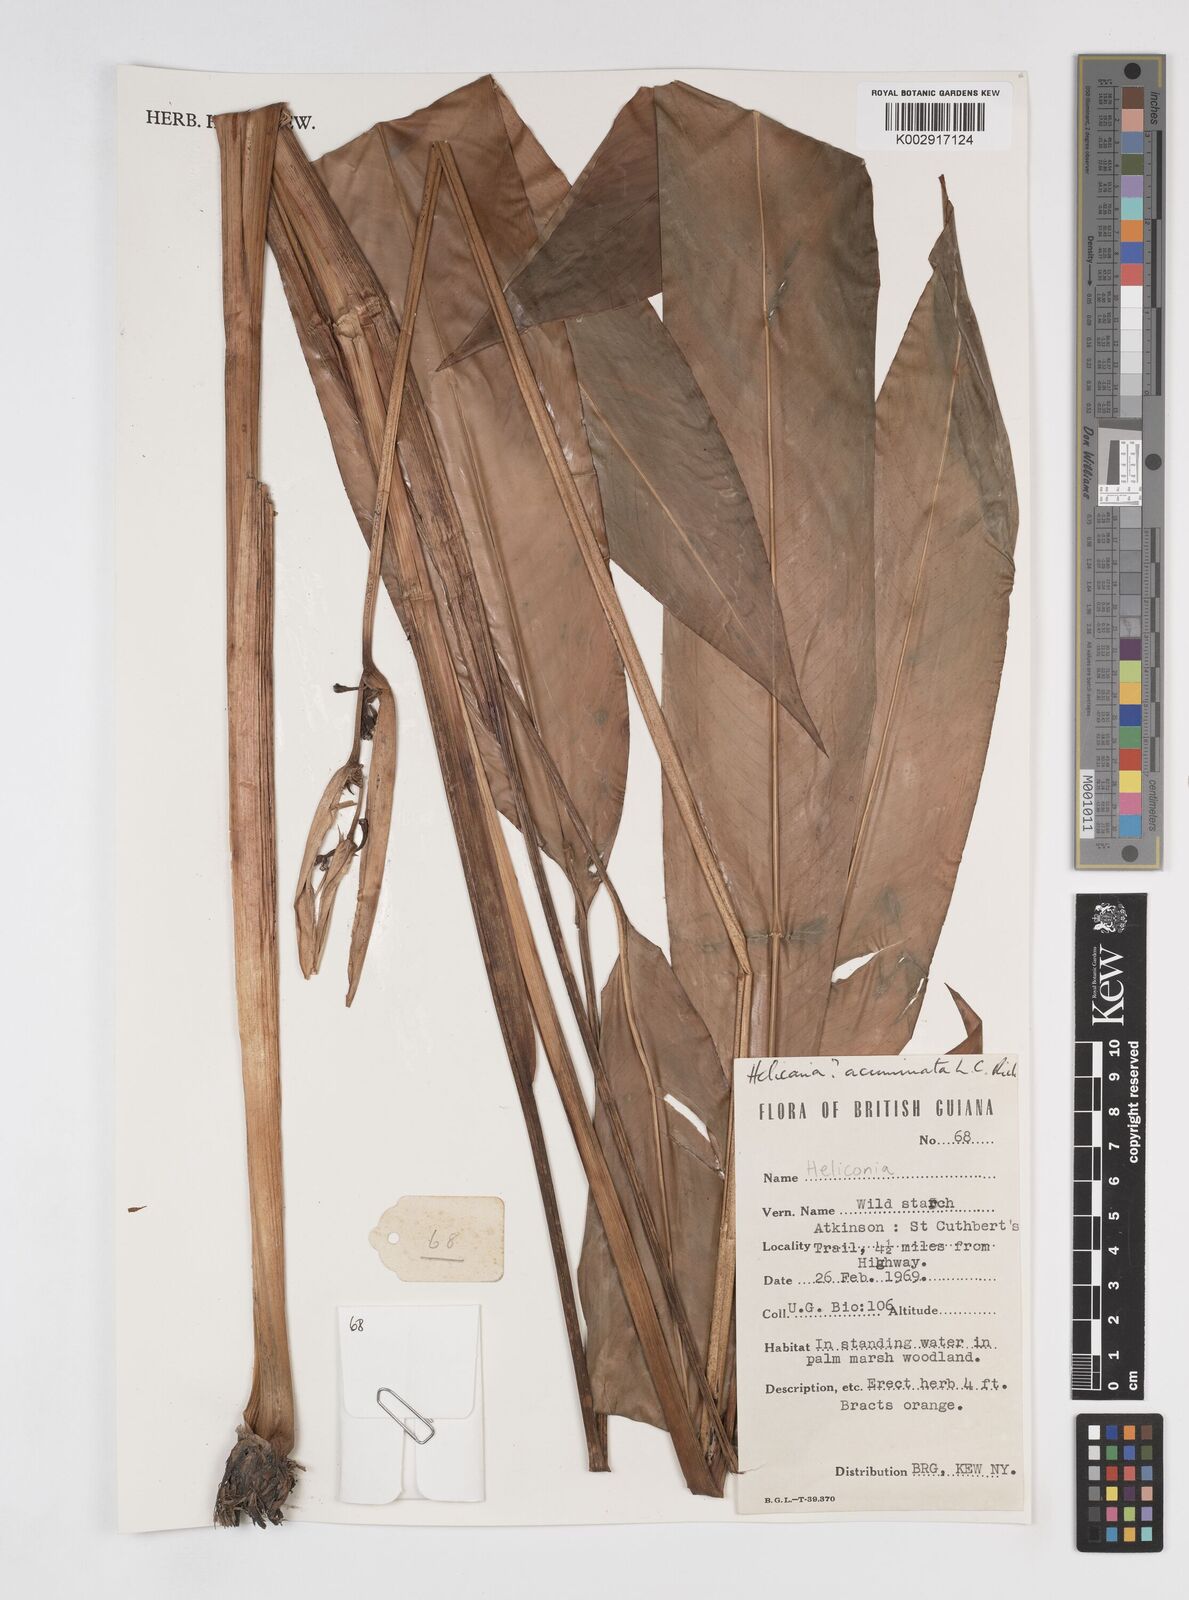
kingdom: Plantae
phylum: Tracheophyta
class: Liliopsida
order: Zingiberales
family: Heliconiaceae
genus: Heliconia
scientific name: Heliconia acuminata
